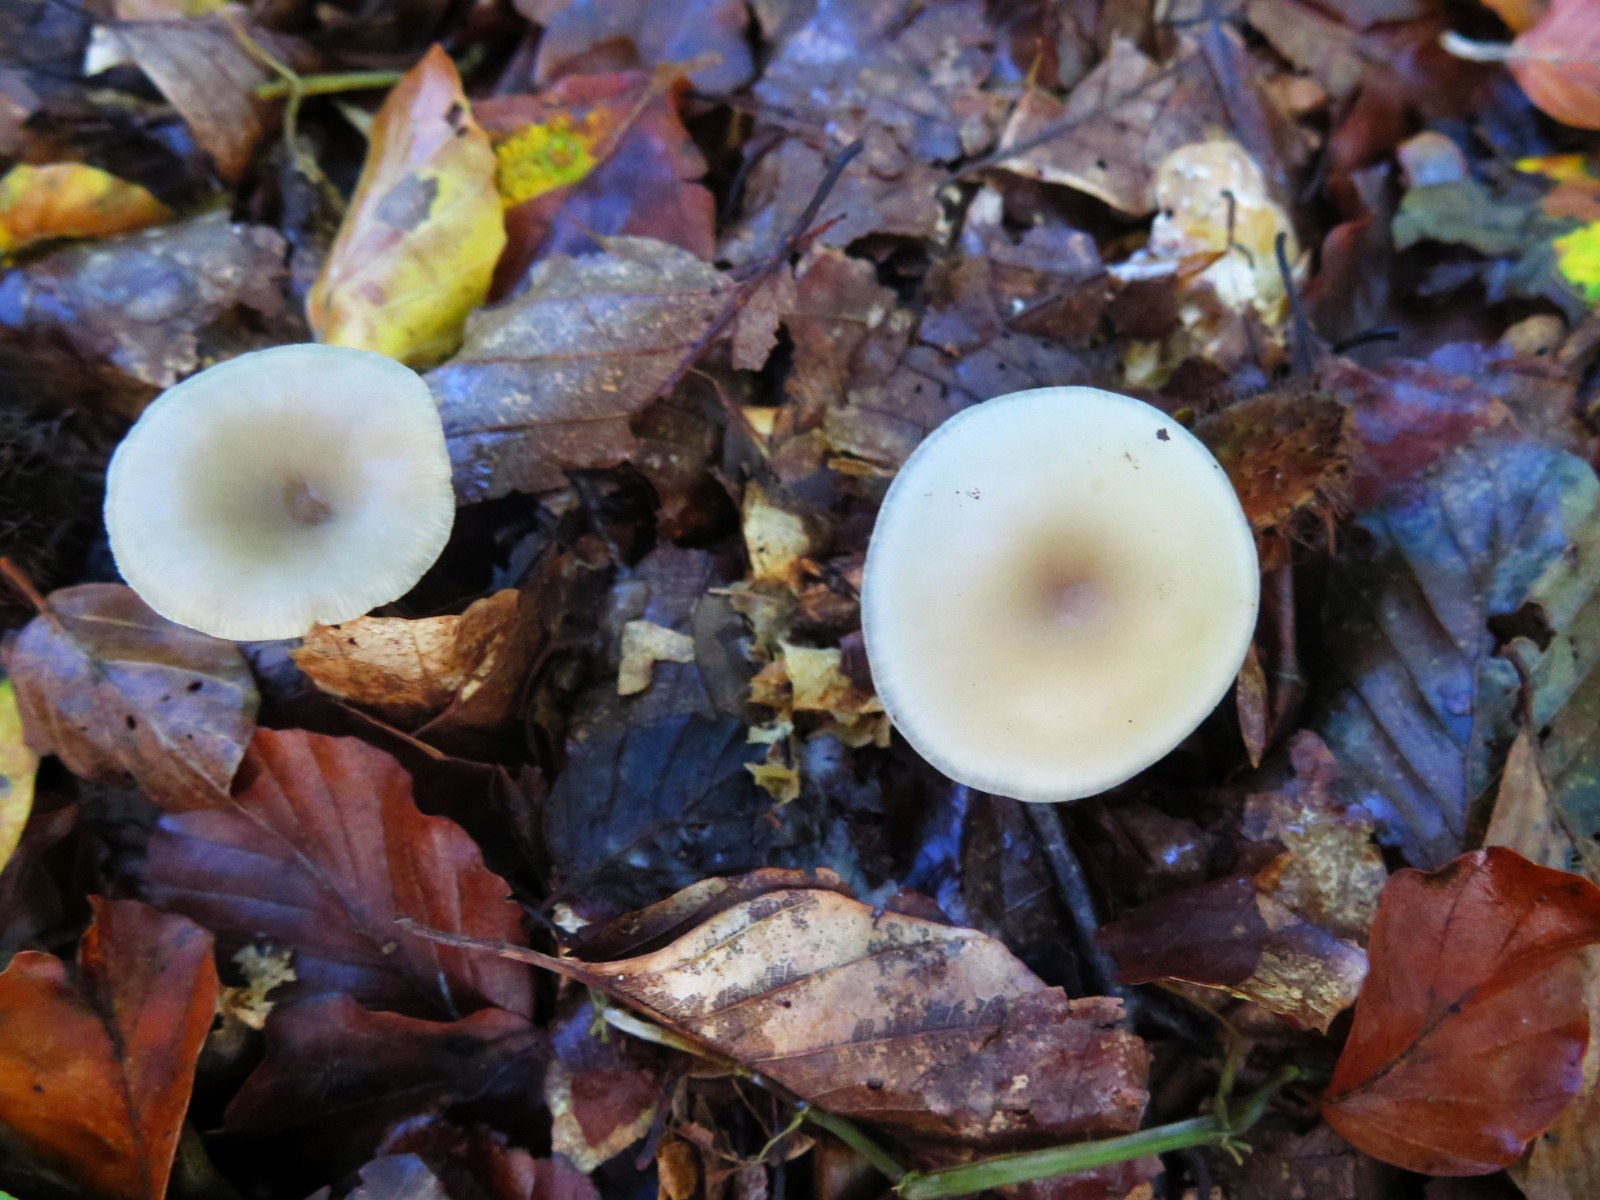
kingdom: Fungi
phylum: Basidiomycota
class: Agaricomycetes
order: Agaricales
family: Tricholomataceae
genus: Clitocybe
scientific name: Clitocybe metachroa
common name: grå tragthat
